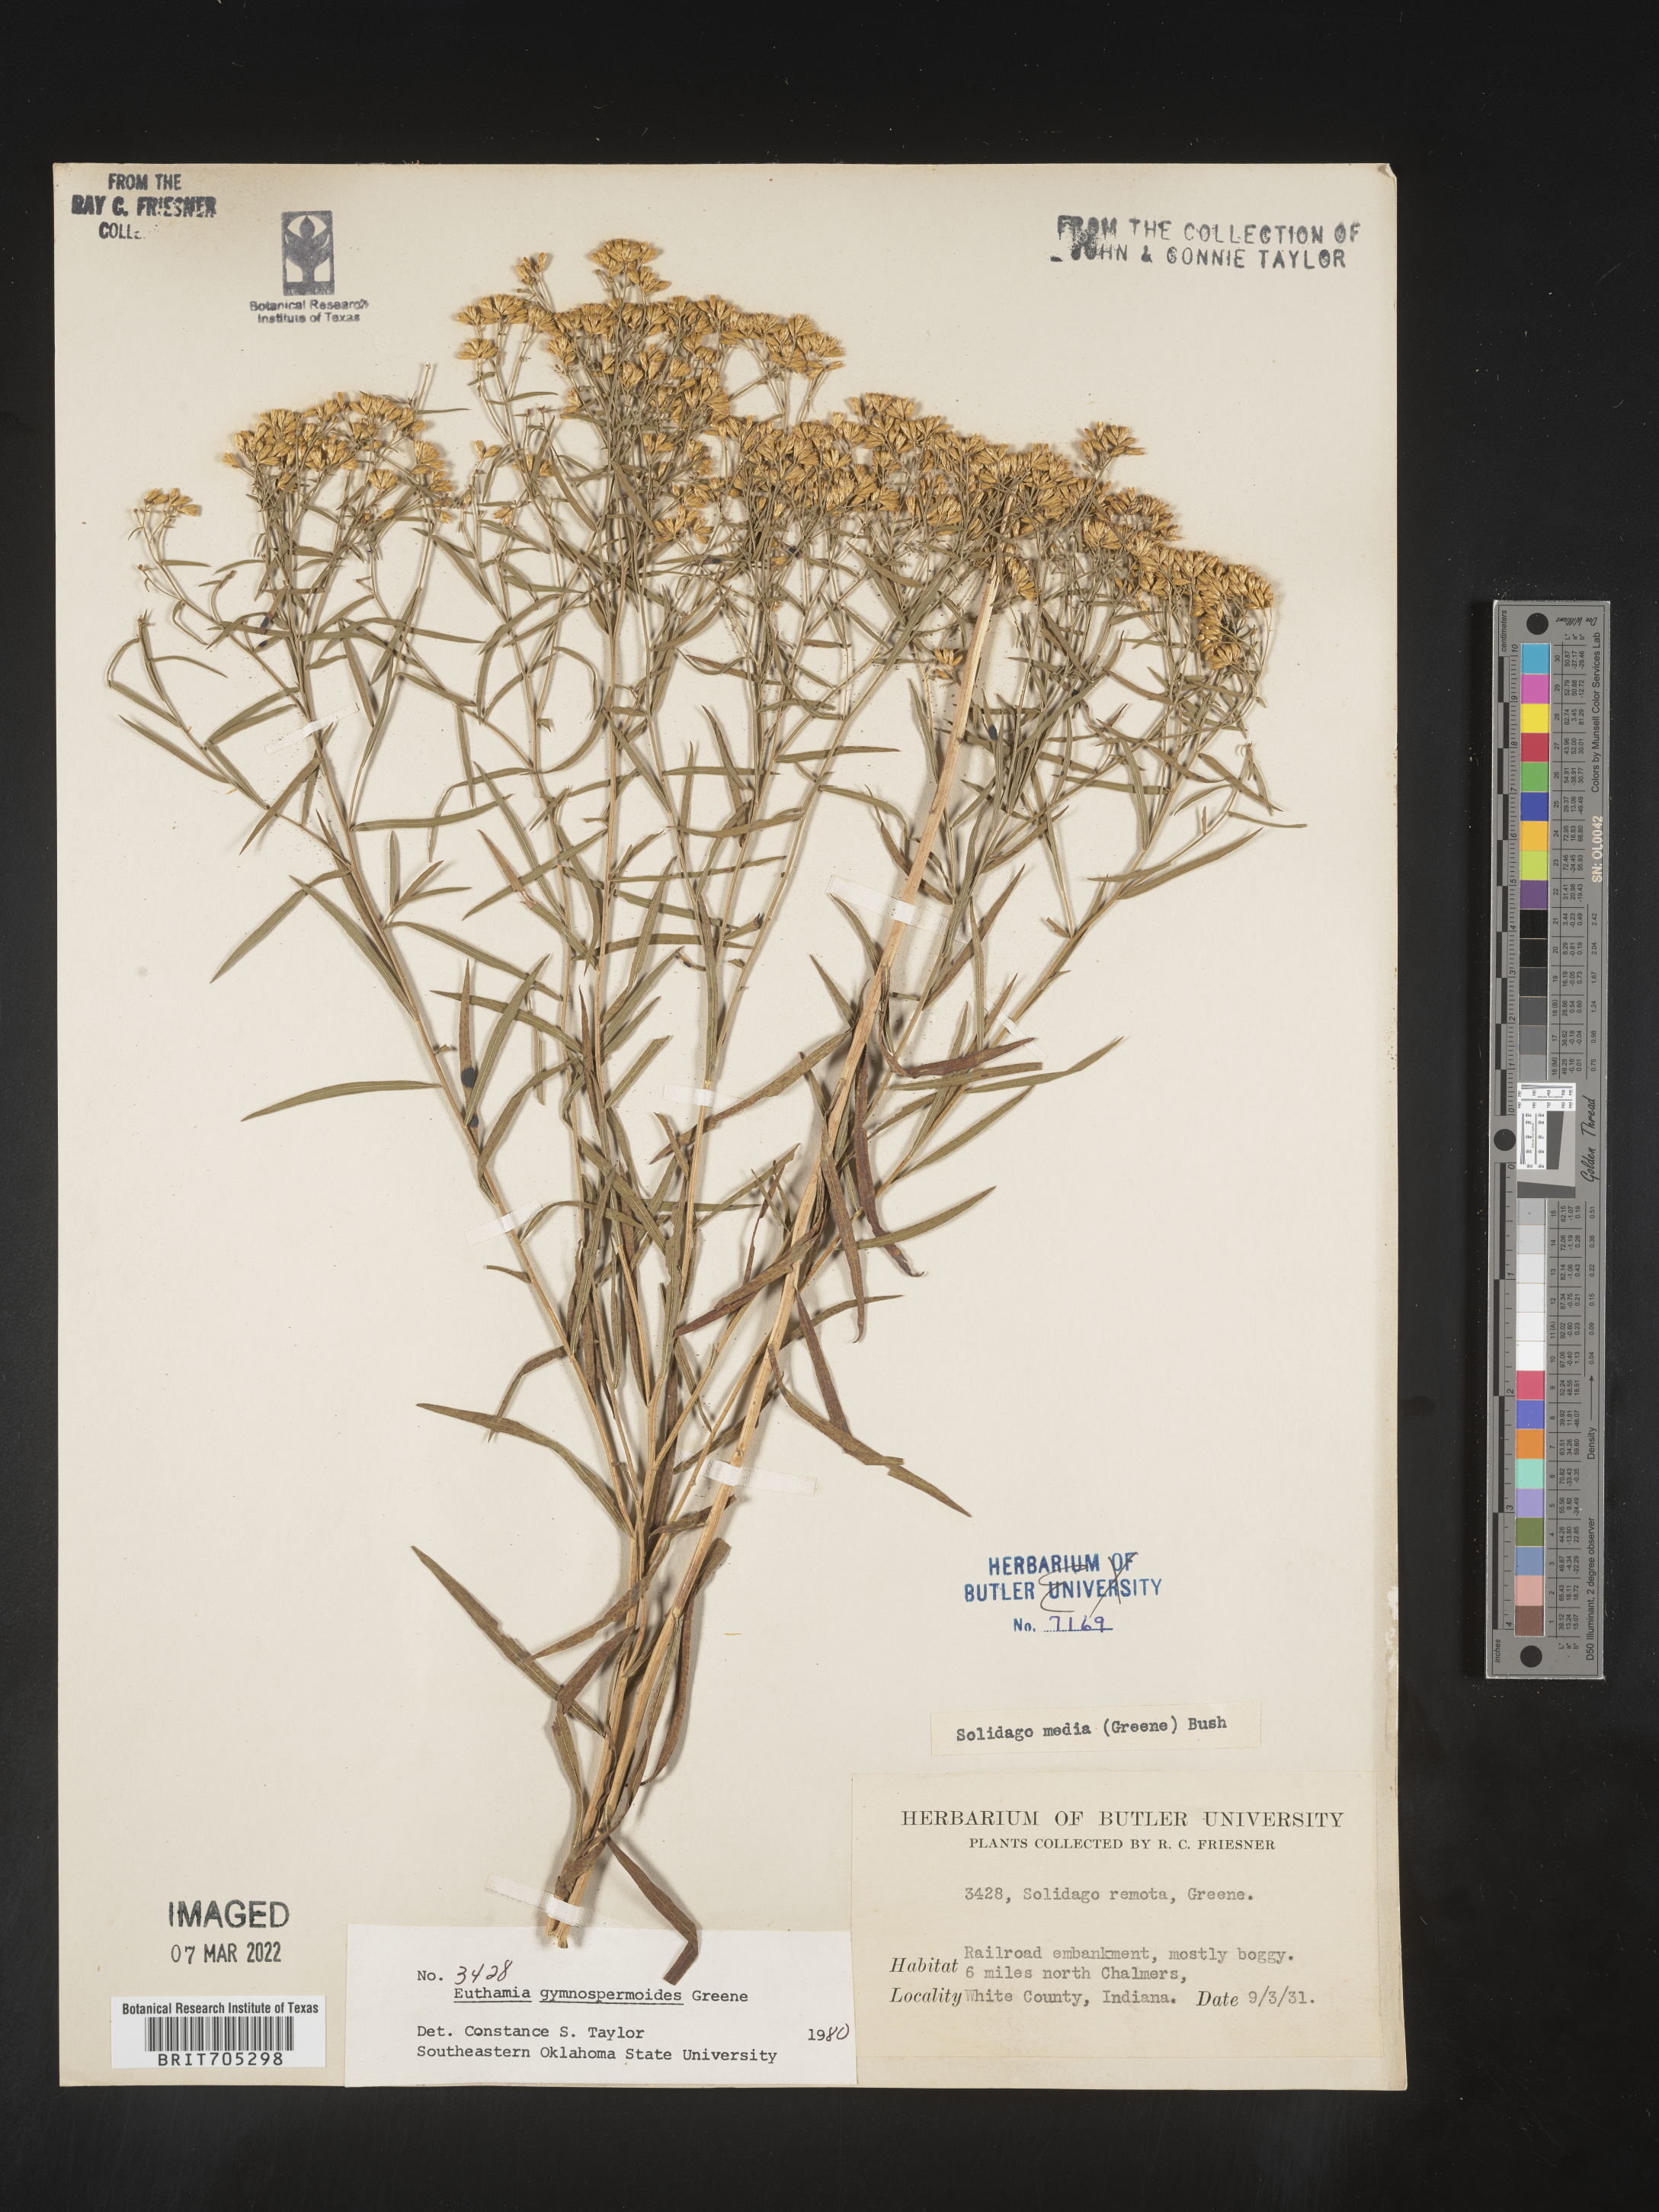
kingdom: Plantae
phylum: Tracheophyta
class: Magnoliopsida
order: Asterales
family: Asteraceae
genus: Euthamia
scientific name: Euthamia gymnospermoides
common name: Great plains goldentop
